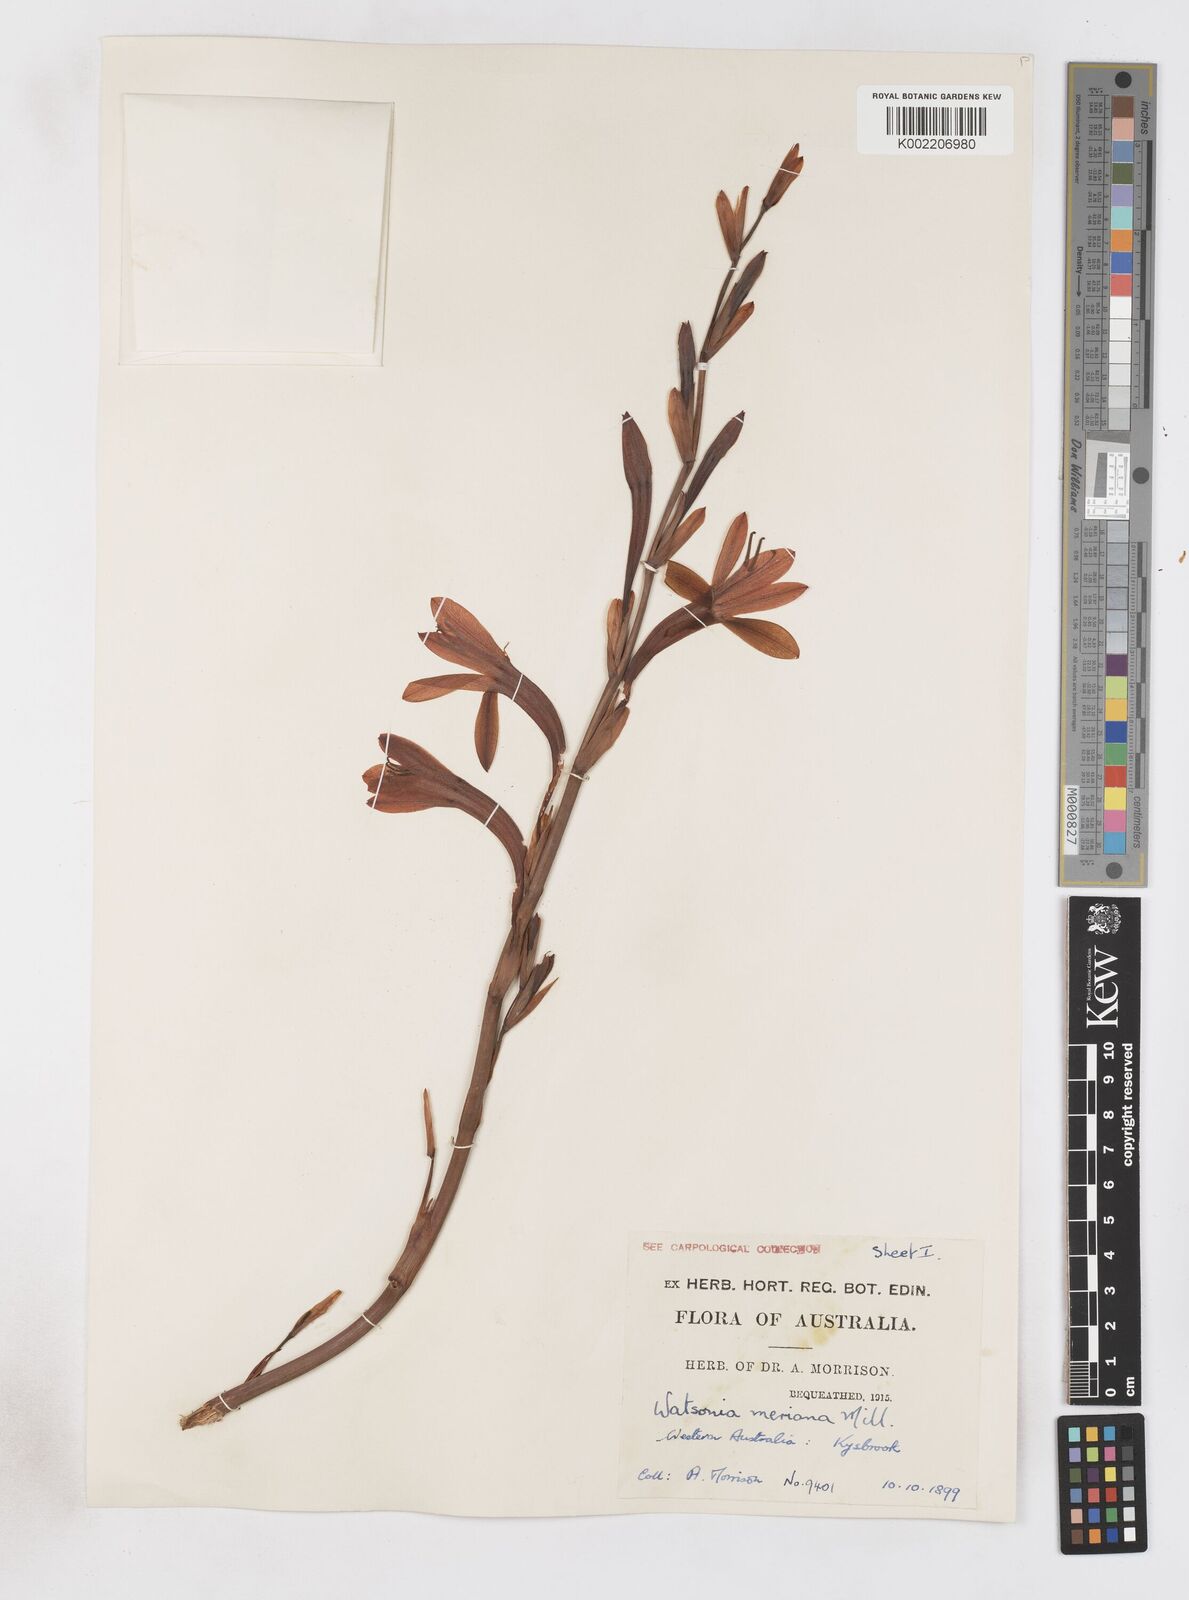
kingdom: Plantae
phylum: Tracheophyta
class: Liliopsida
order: Asparagales
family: Iridaceae
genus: Pillansia
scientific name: Pillansia
